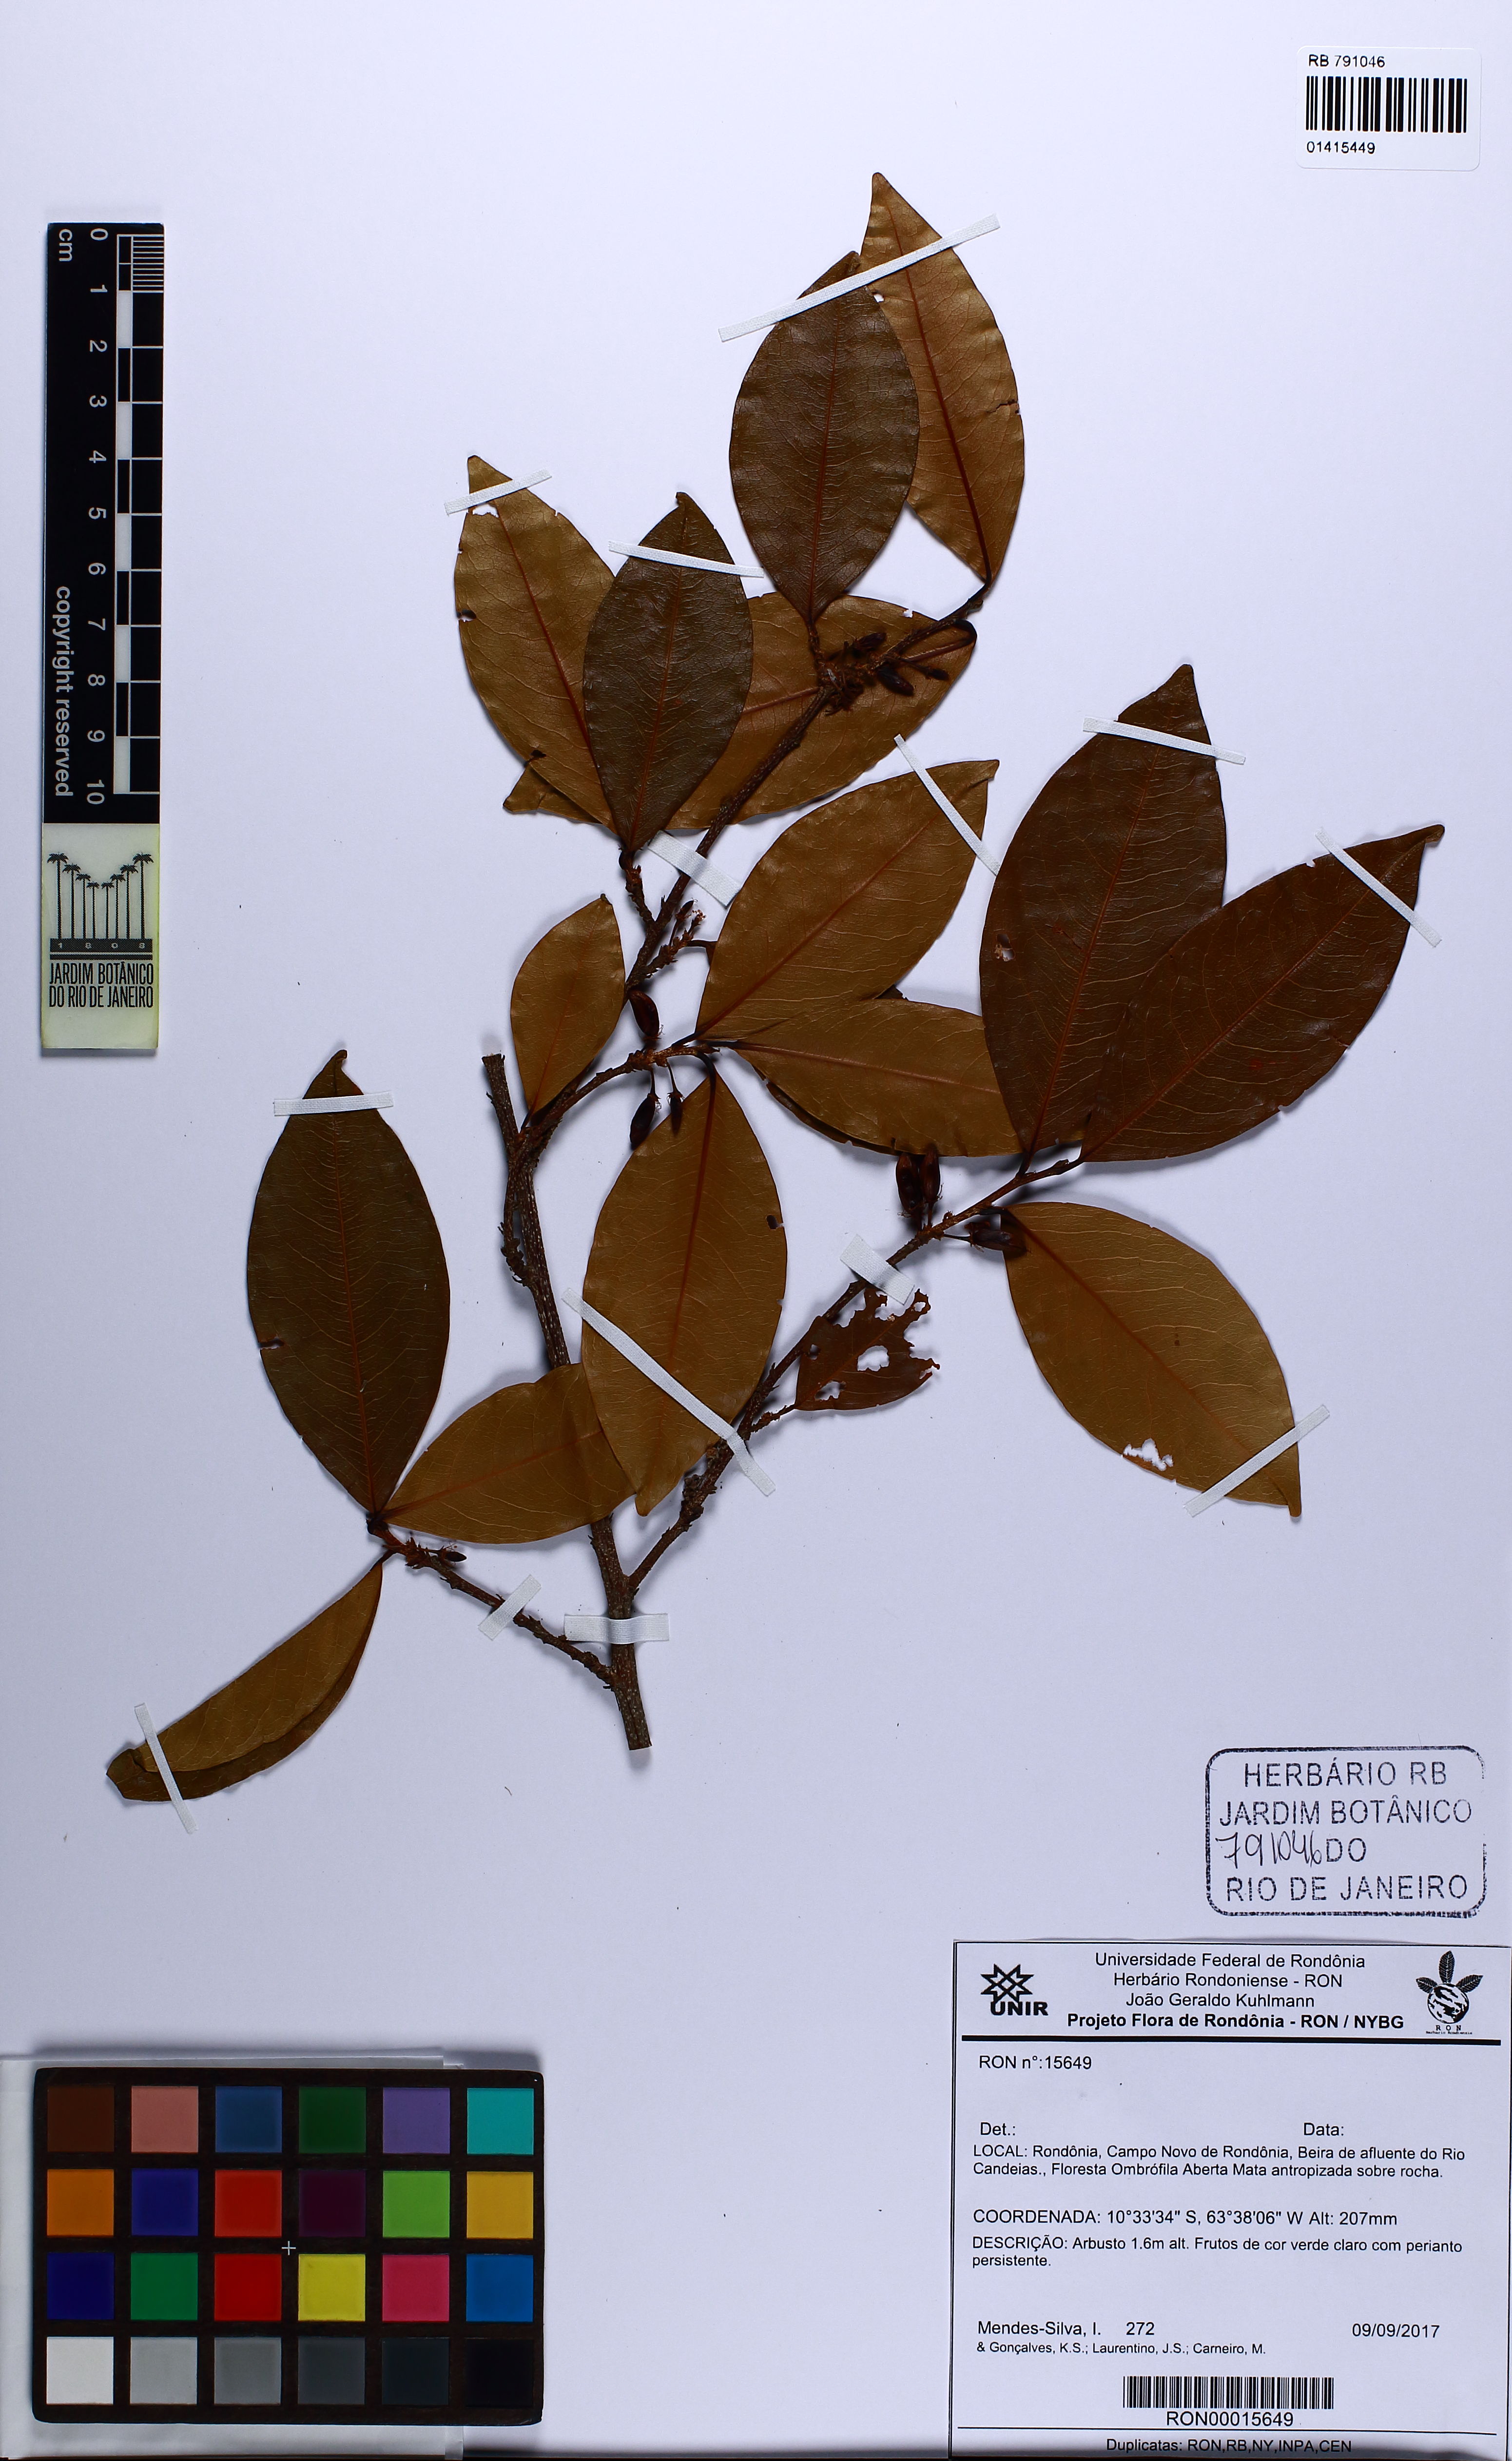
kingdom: Plantae
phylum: Tracheophyta
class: Magnoliopsida
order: Malpighiales
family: Erythroxylaceae
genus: Erythroxylum
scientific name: Erythroxylum
